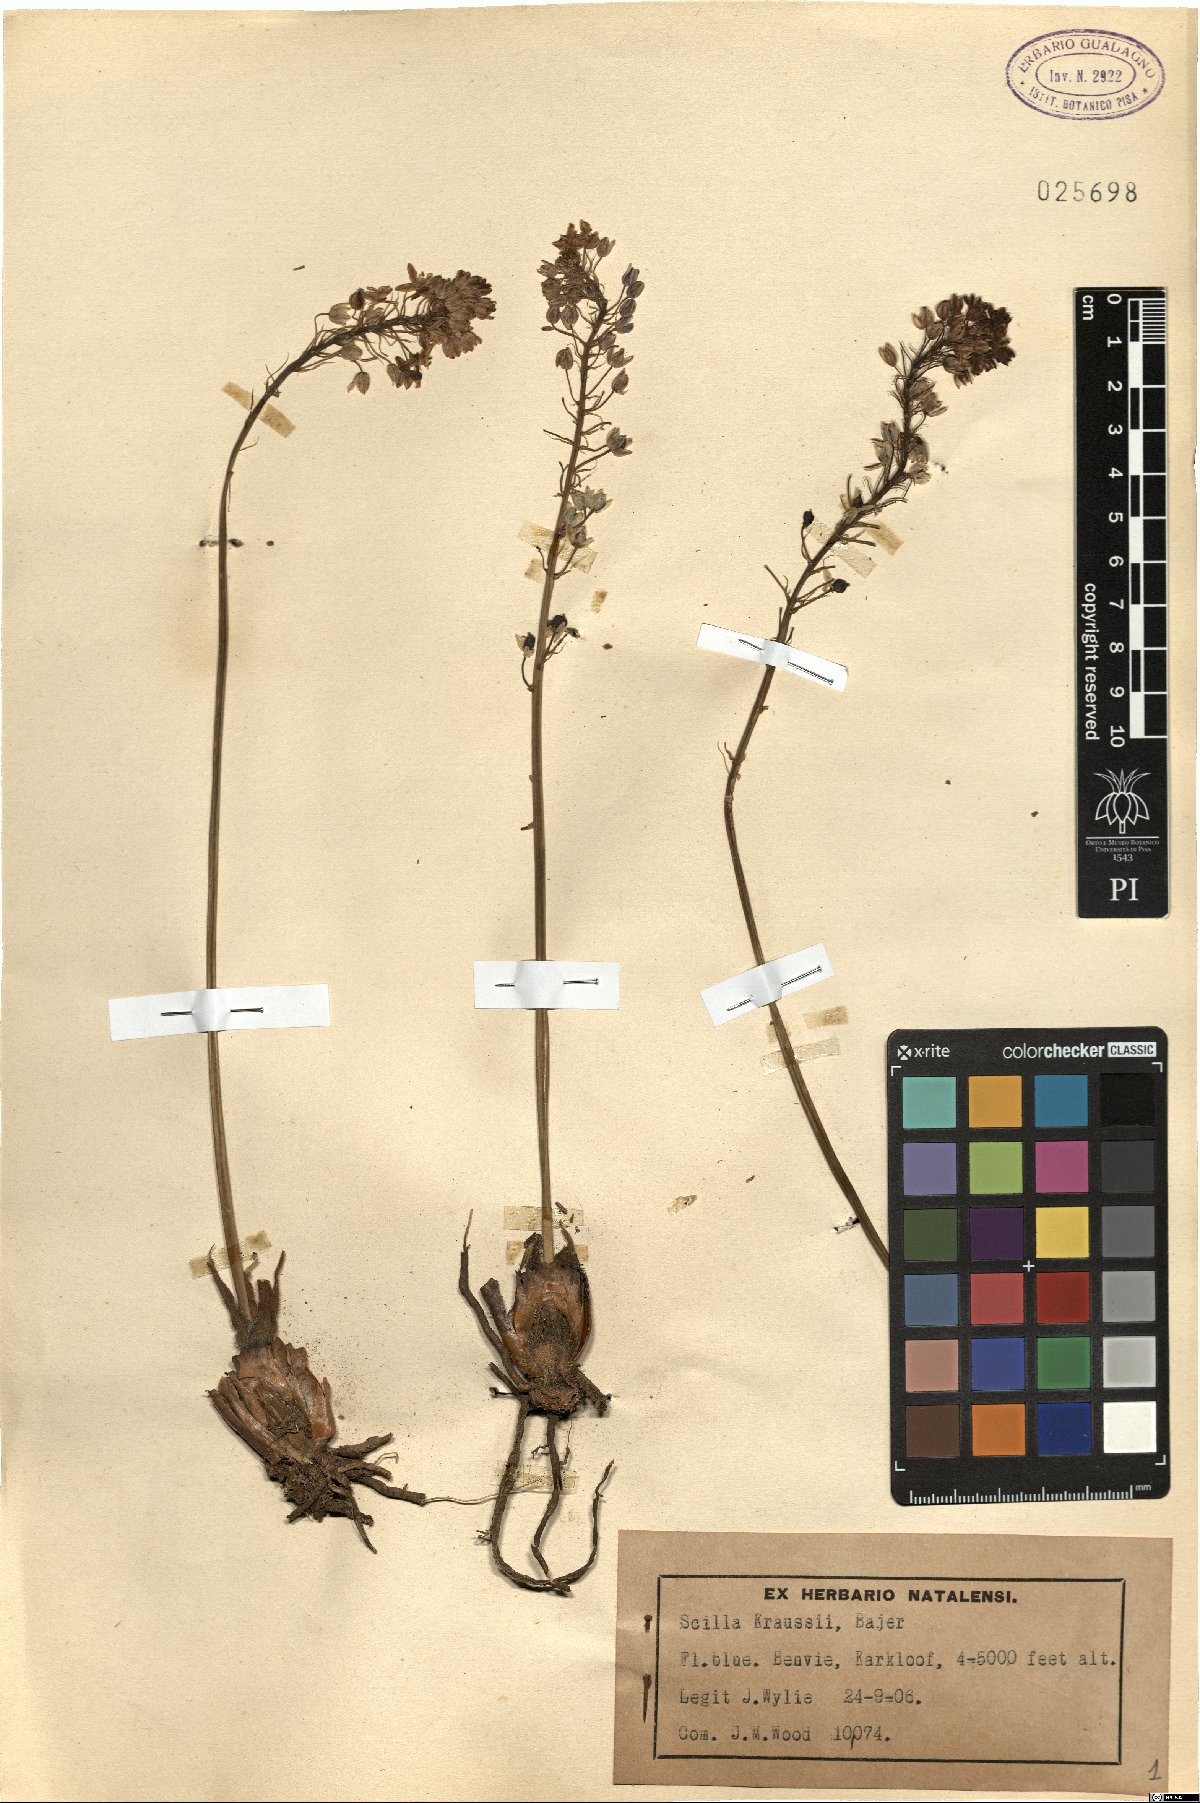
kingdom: Plantae
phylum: Tracheophyta
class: Liliopsida
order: Asparagales
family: Asparagaceae
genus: Merwilla
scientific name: Merwilla plumbea
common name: Blue-squill
